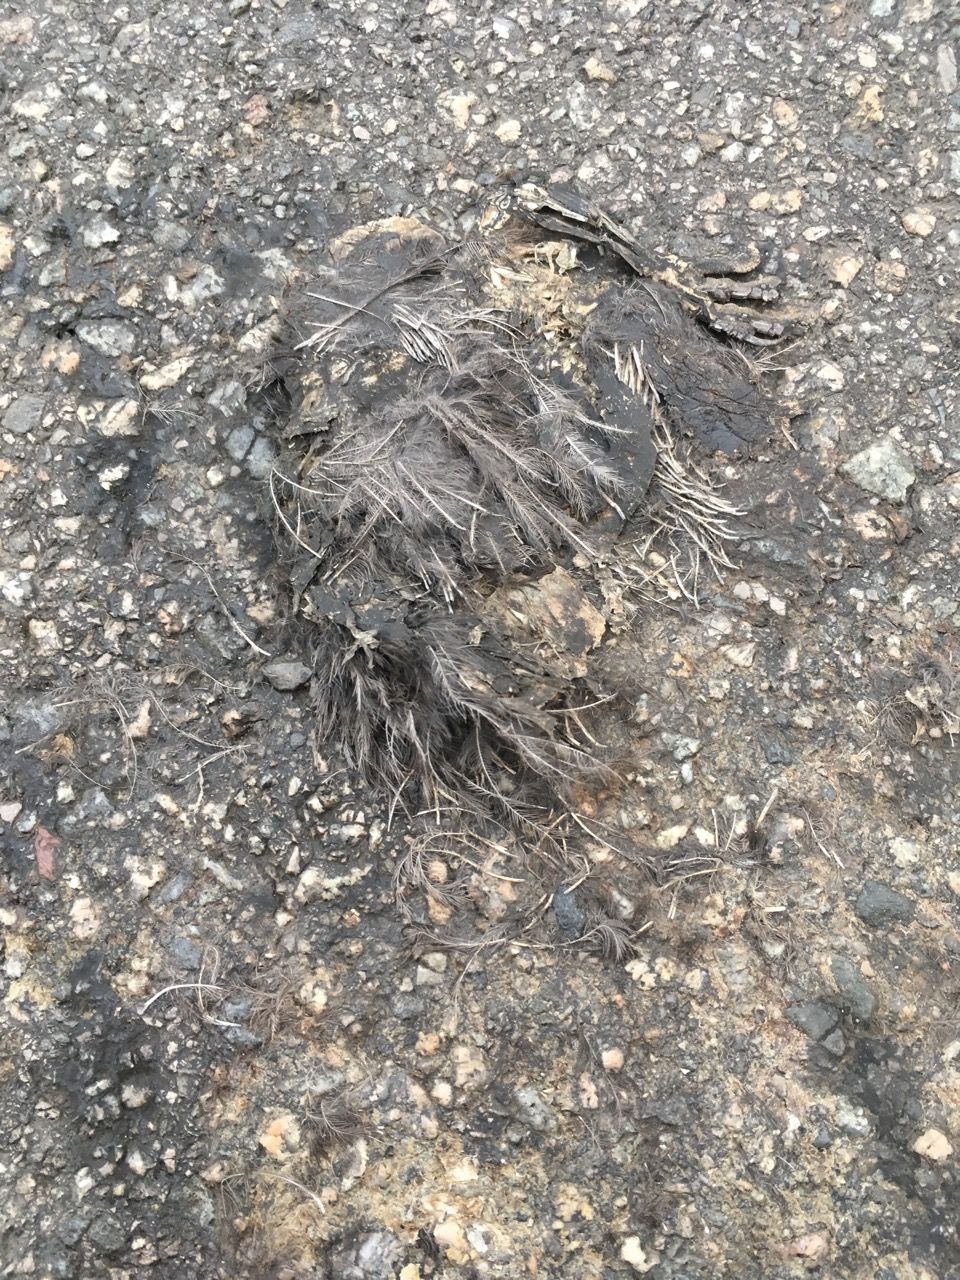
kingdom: Animalia
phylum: Chordata
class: Aves
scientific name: Aves
